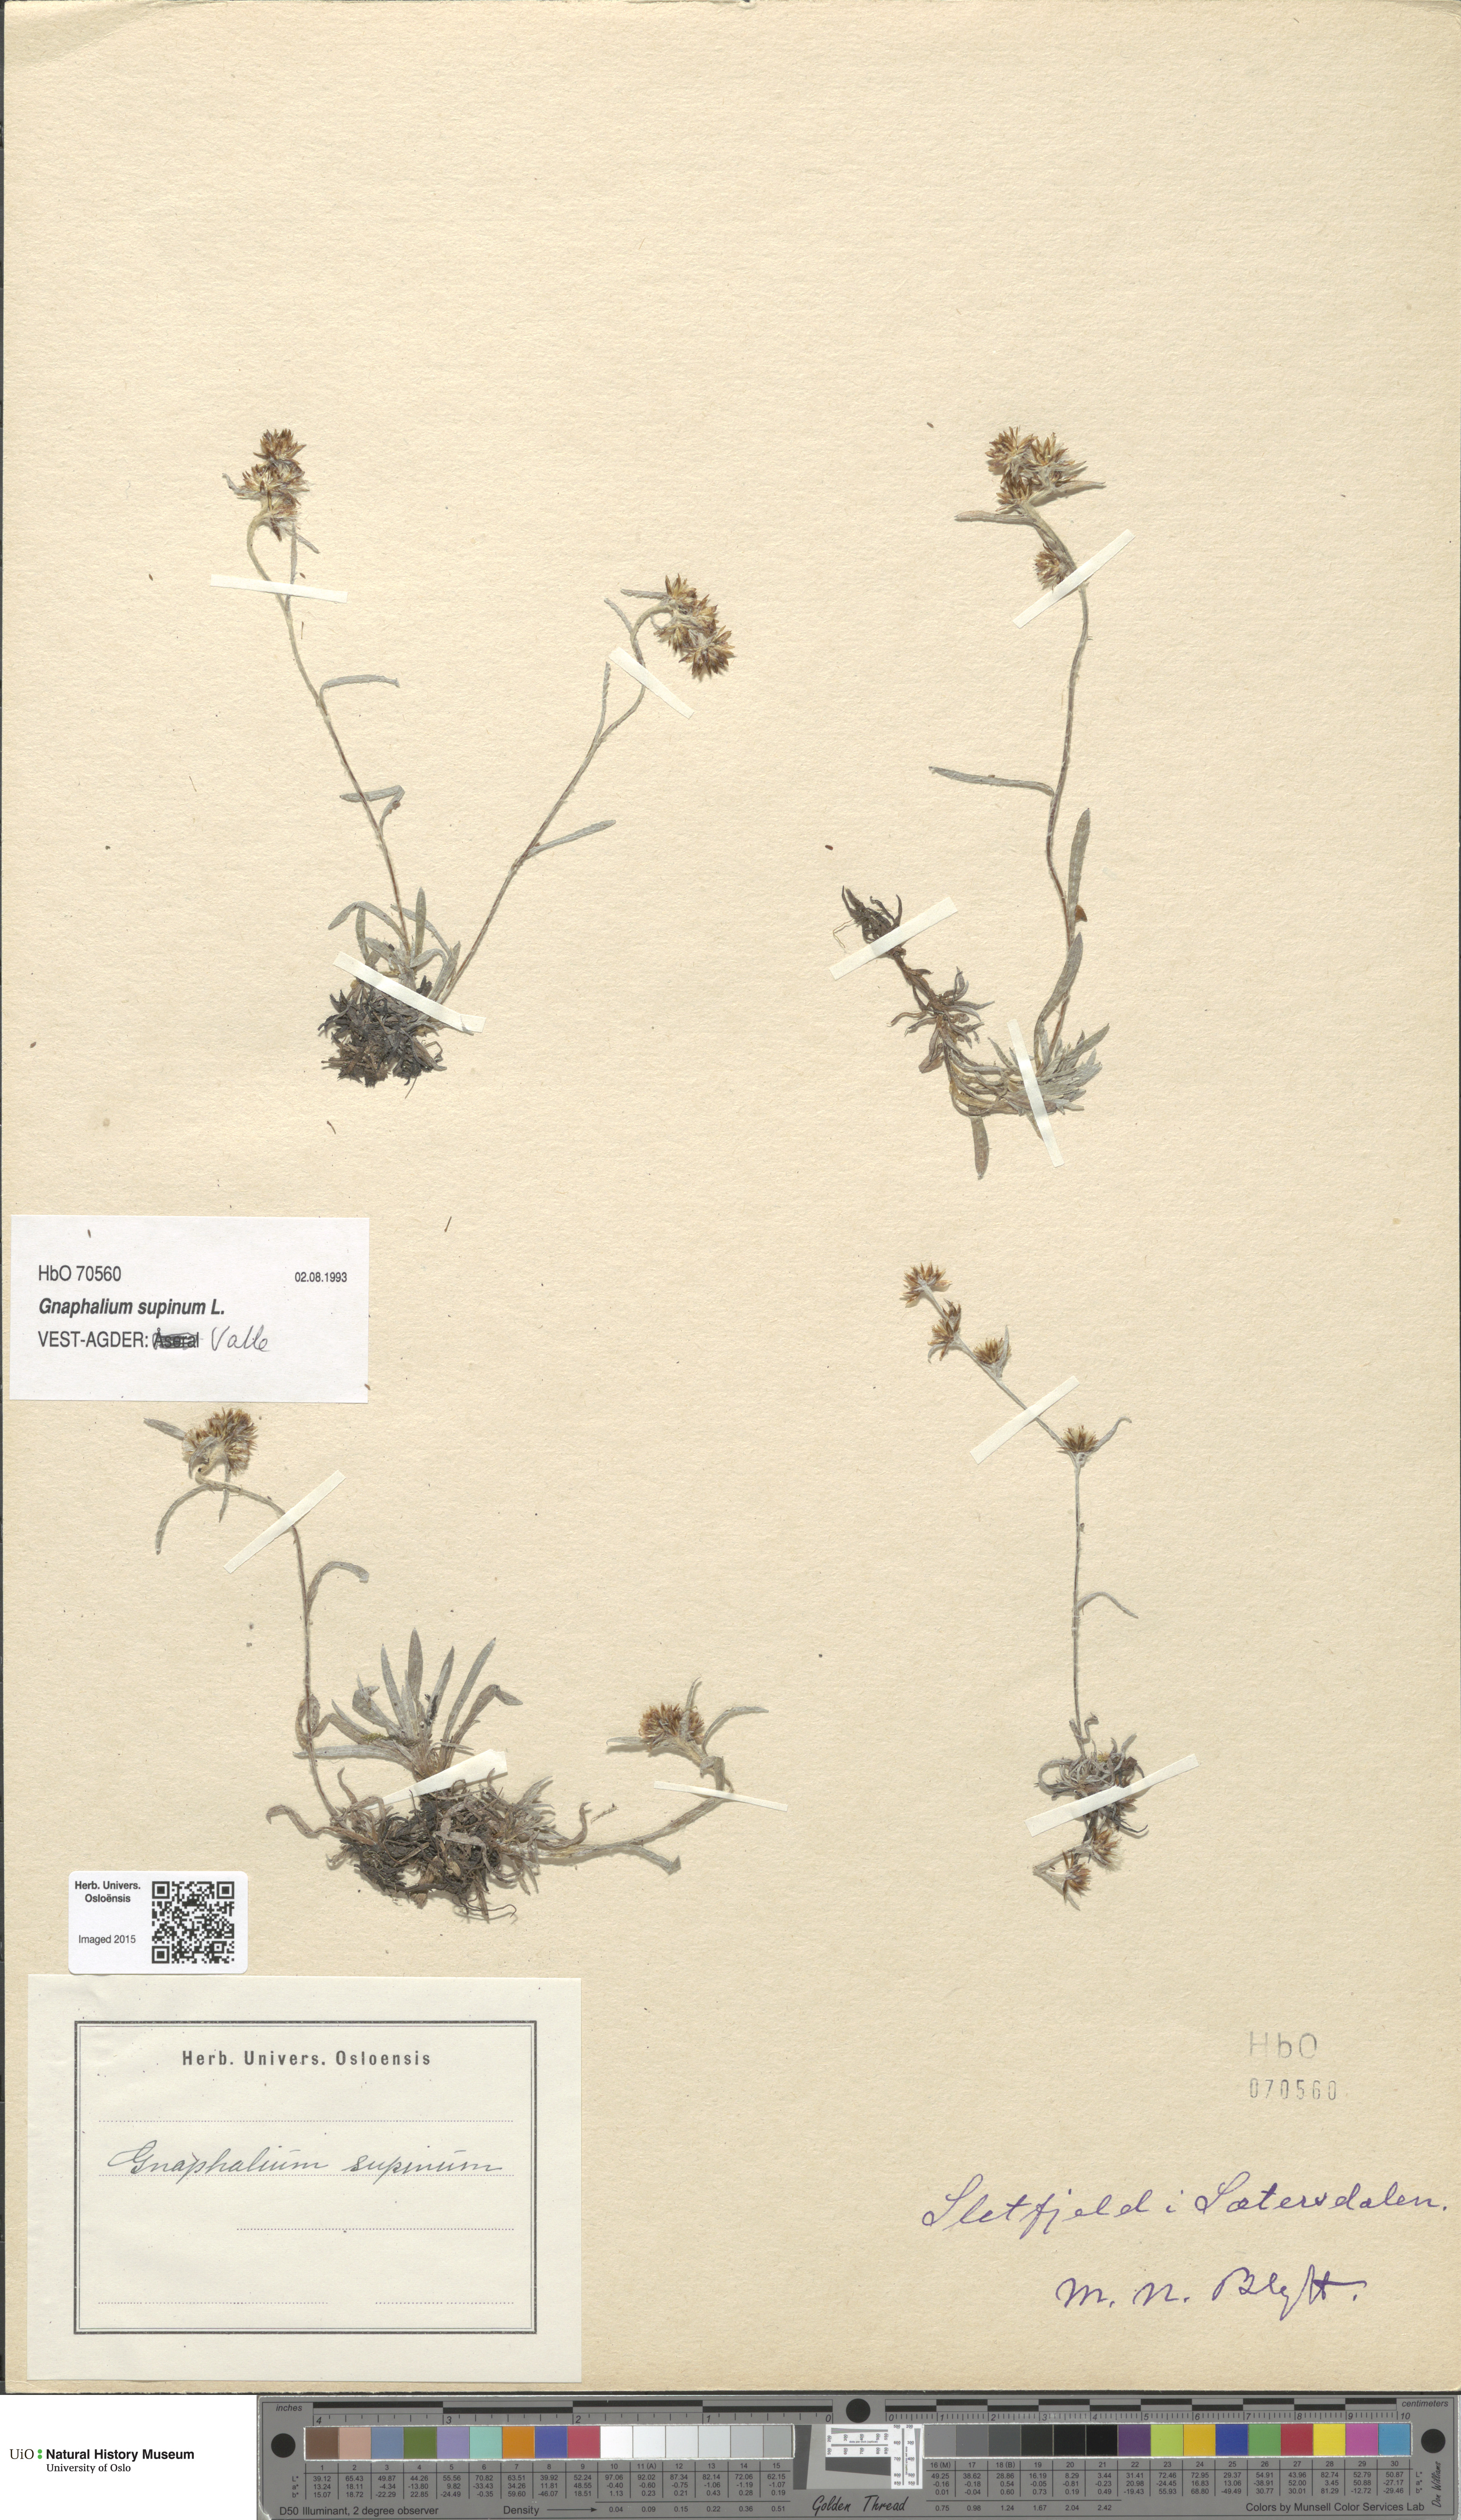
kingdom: Plantae
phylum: Tracheophyta
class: Magnoliopsida
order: Asterales
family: Asteraceae
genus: Omalotheca
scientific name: Omalotheca supina
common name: Alpine arctic-cudweed
